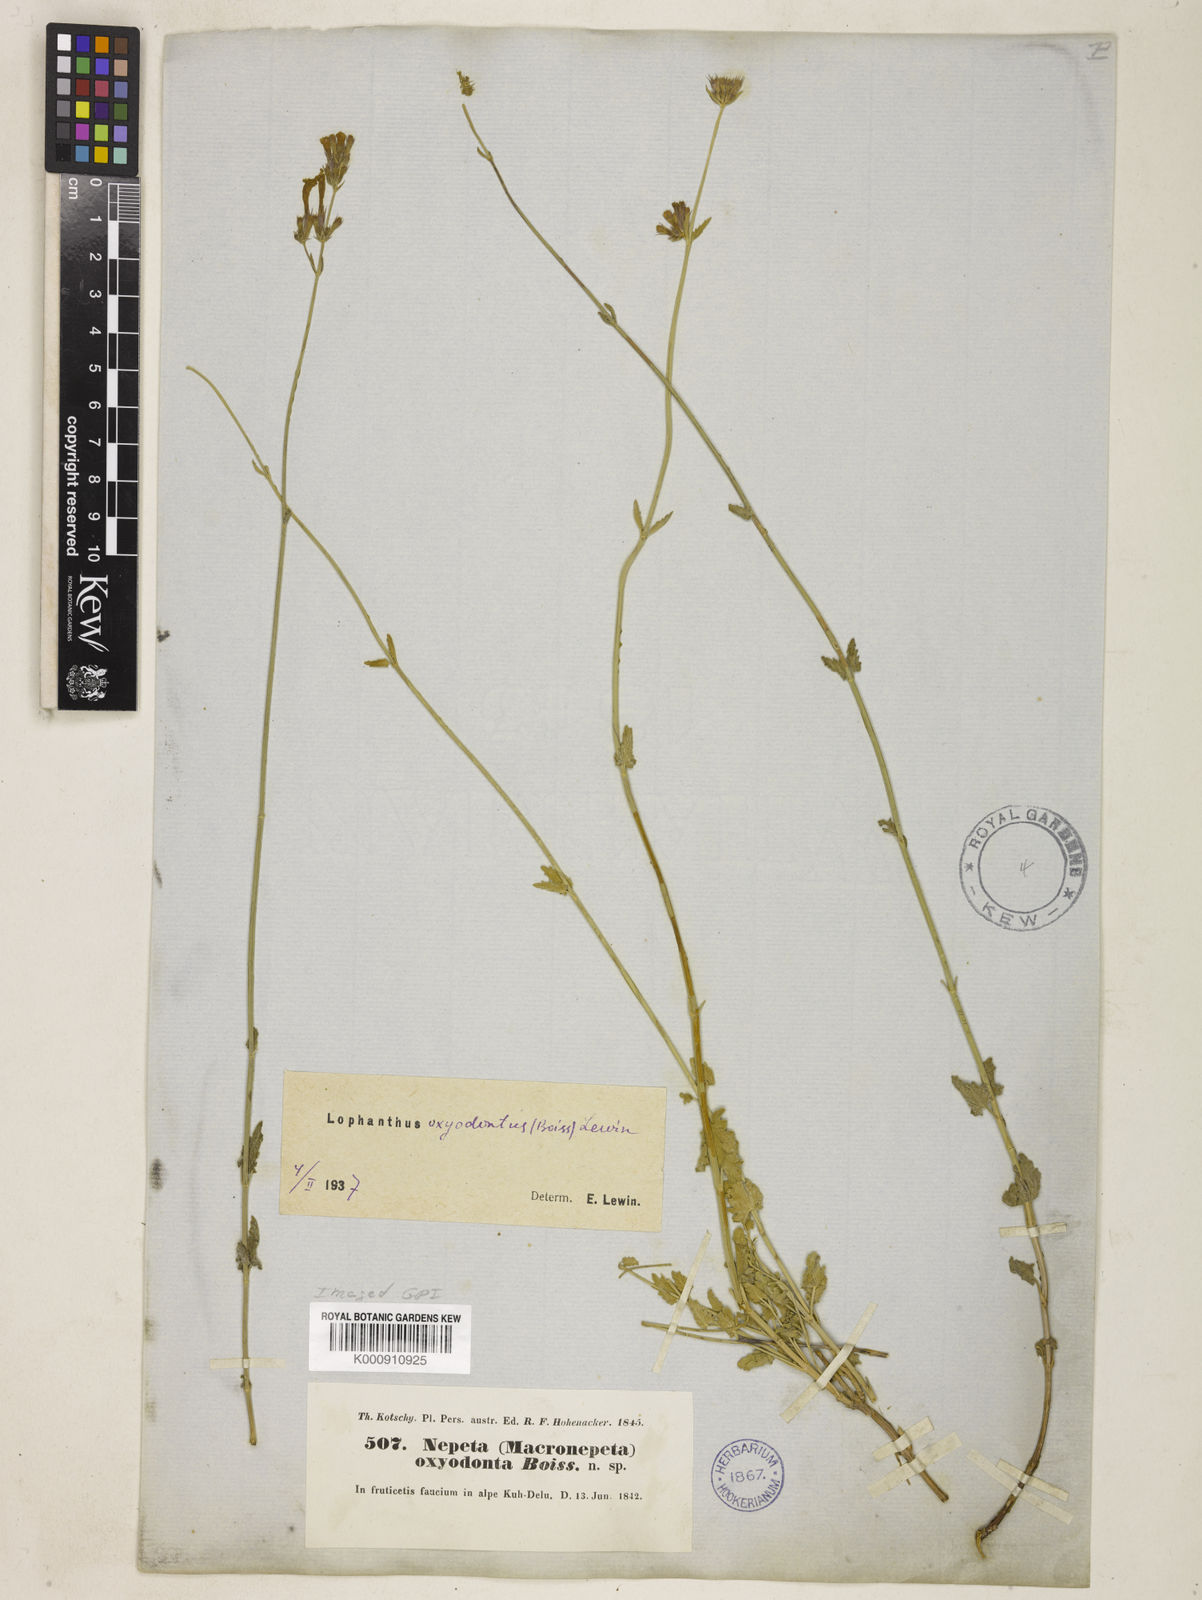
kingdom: Plantae
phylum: Tracheophyta
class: Magnoliopsida
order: Lamiales
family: Lamiaceae
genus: Nepeta
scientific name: Nepeta oxyodonta
